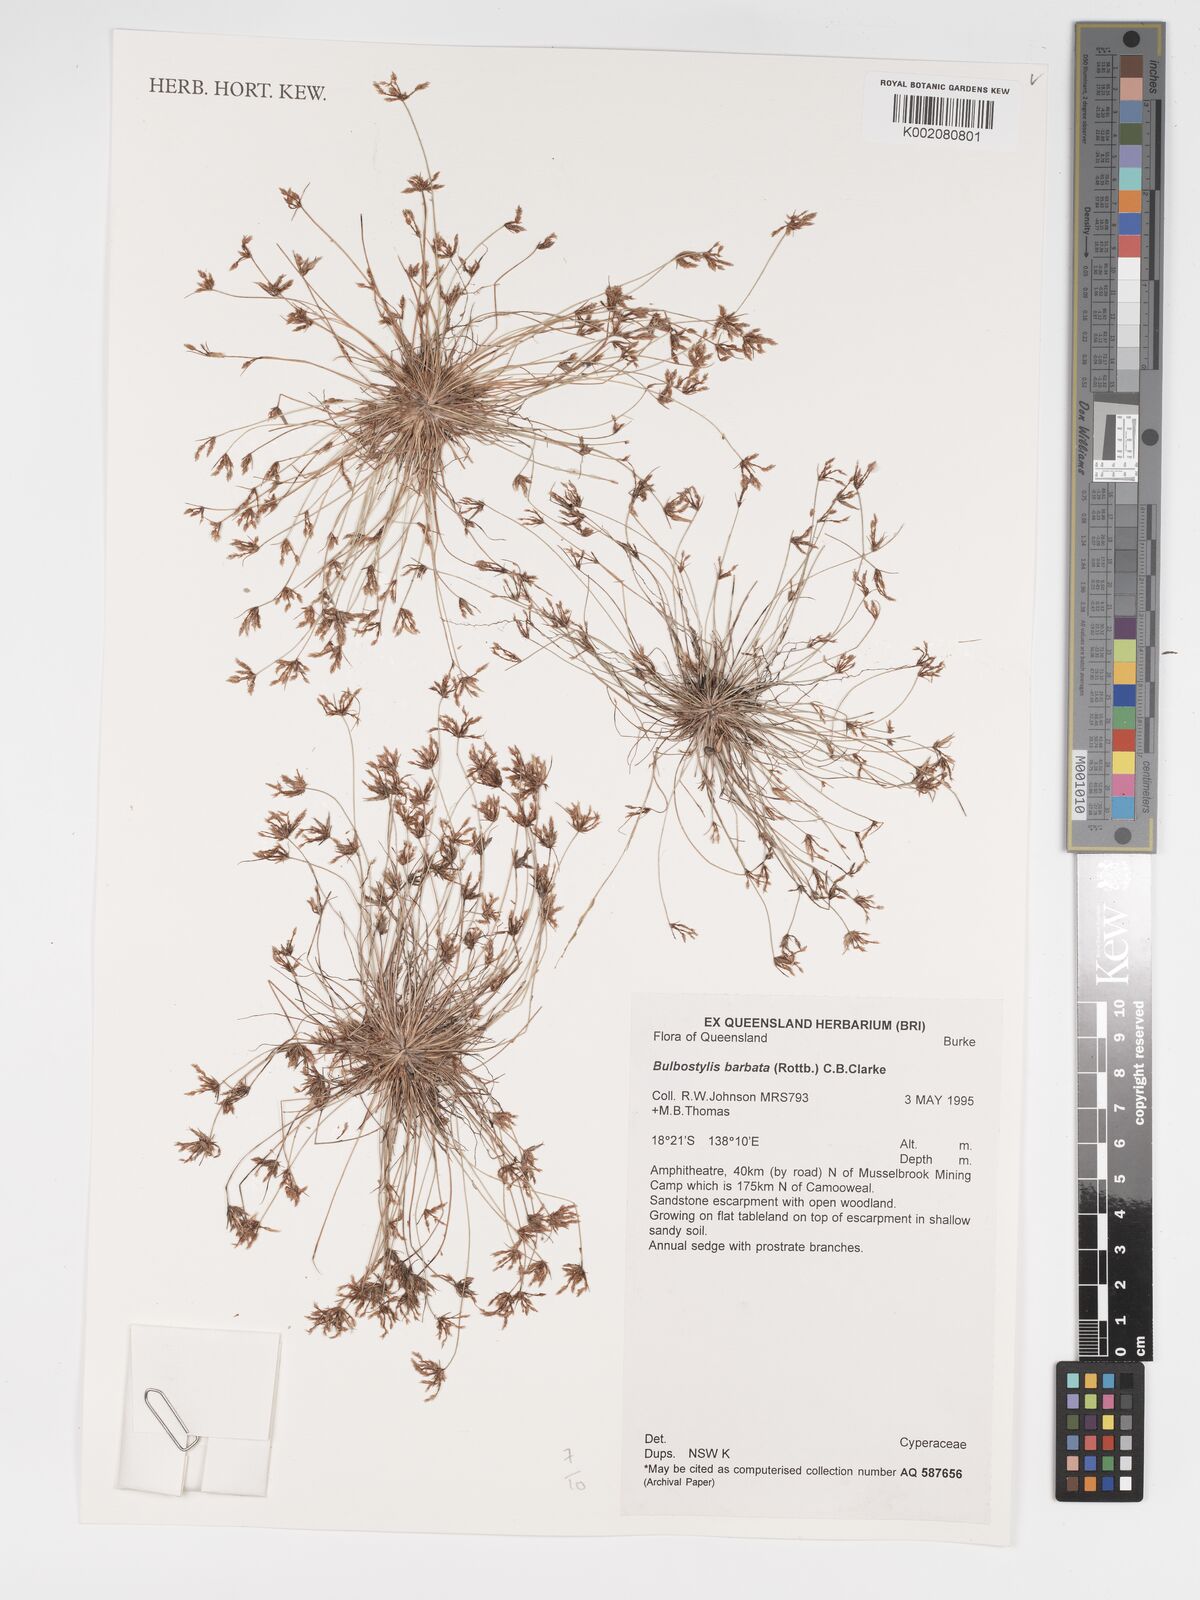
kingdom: Plantae
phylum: Tracheophyta
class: Liliopsida
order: Poales
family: Cyperaceae
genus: Bulbostylis
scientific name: Bulbostylis barbata
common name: Watergrass
